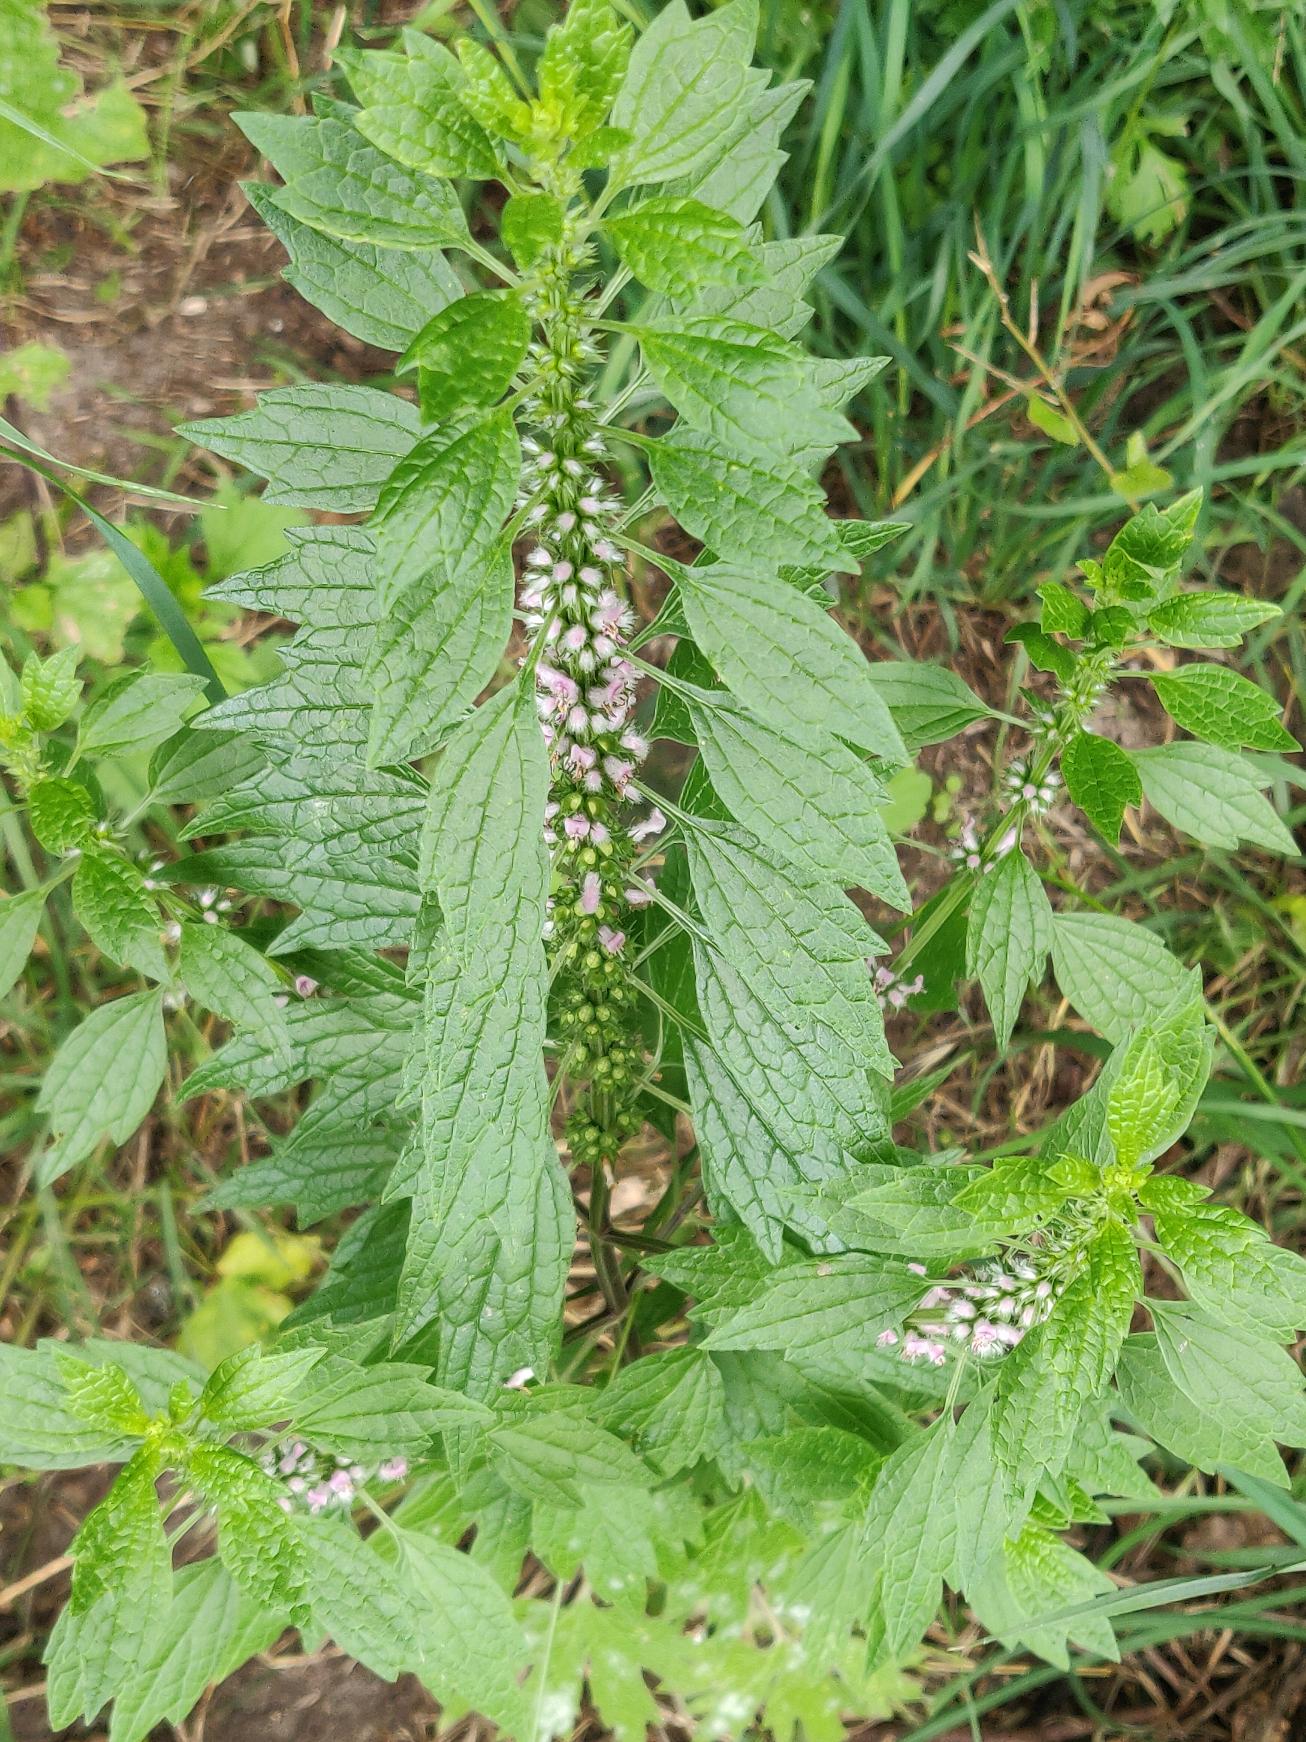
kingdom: Plantae
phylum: Tracheophyta
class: Magnoliopsida
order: Lamiales
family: Lamiaceae
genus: Leonurus
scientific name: Leonurus cardiaca
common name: Hjertespand
